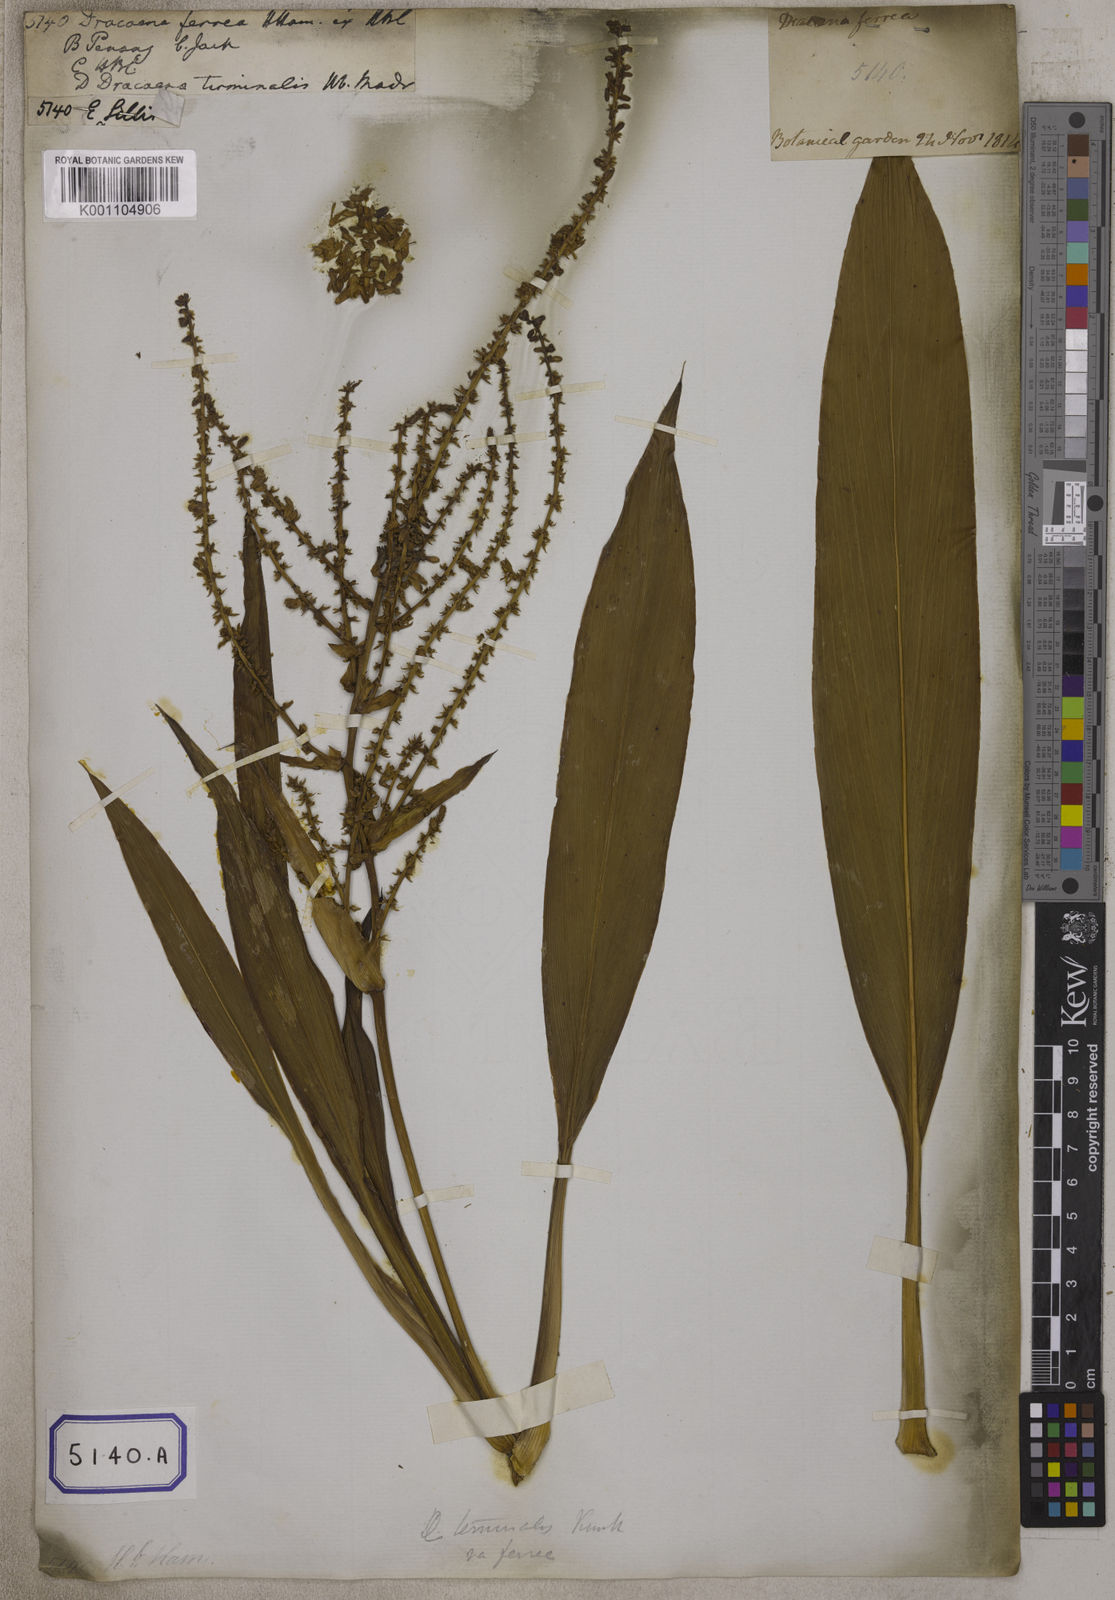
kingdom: Plantae
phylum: Tracheophyta
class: Liliopsida
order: Asparagales
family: Asparagaceae
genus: Cordyline
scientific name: Cordyline fruticosa
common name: Good-luck-plant
